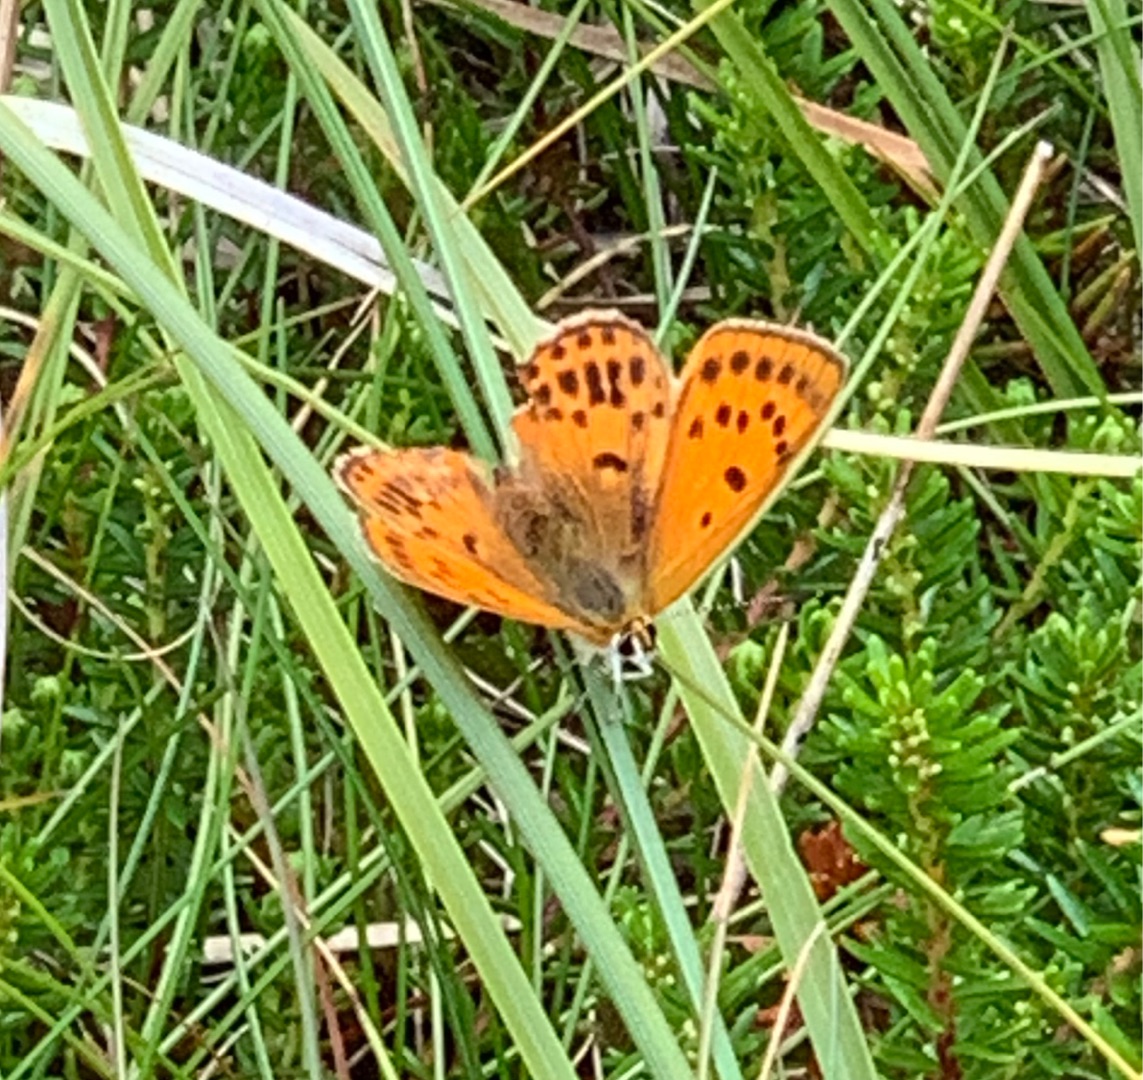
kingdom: Animalia
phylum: Arthropoda
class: Insecta
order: Lepidoptera
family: Lycaenidae
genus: Lycaena
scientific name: Lycaena virgaureae
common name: Dukatsommerfugl
